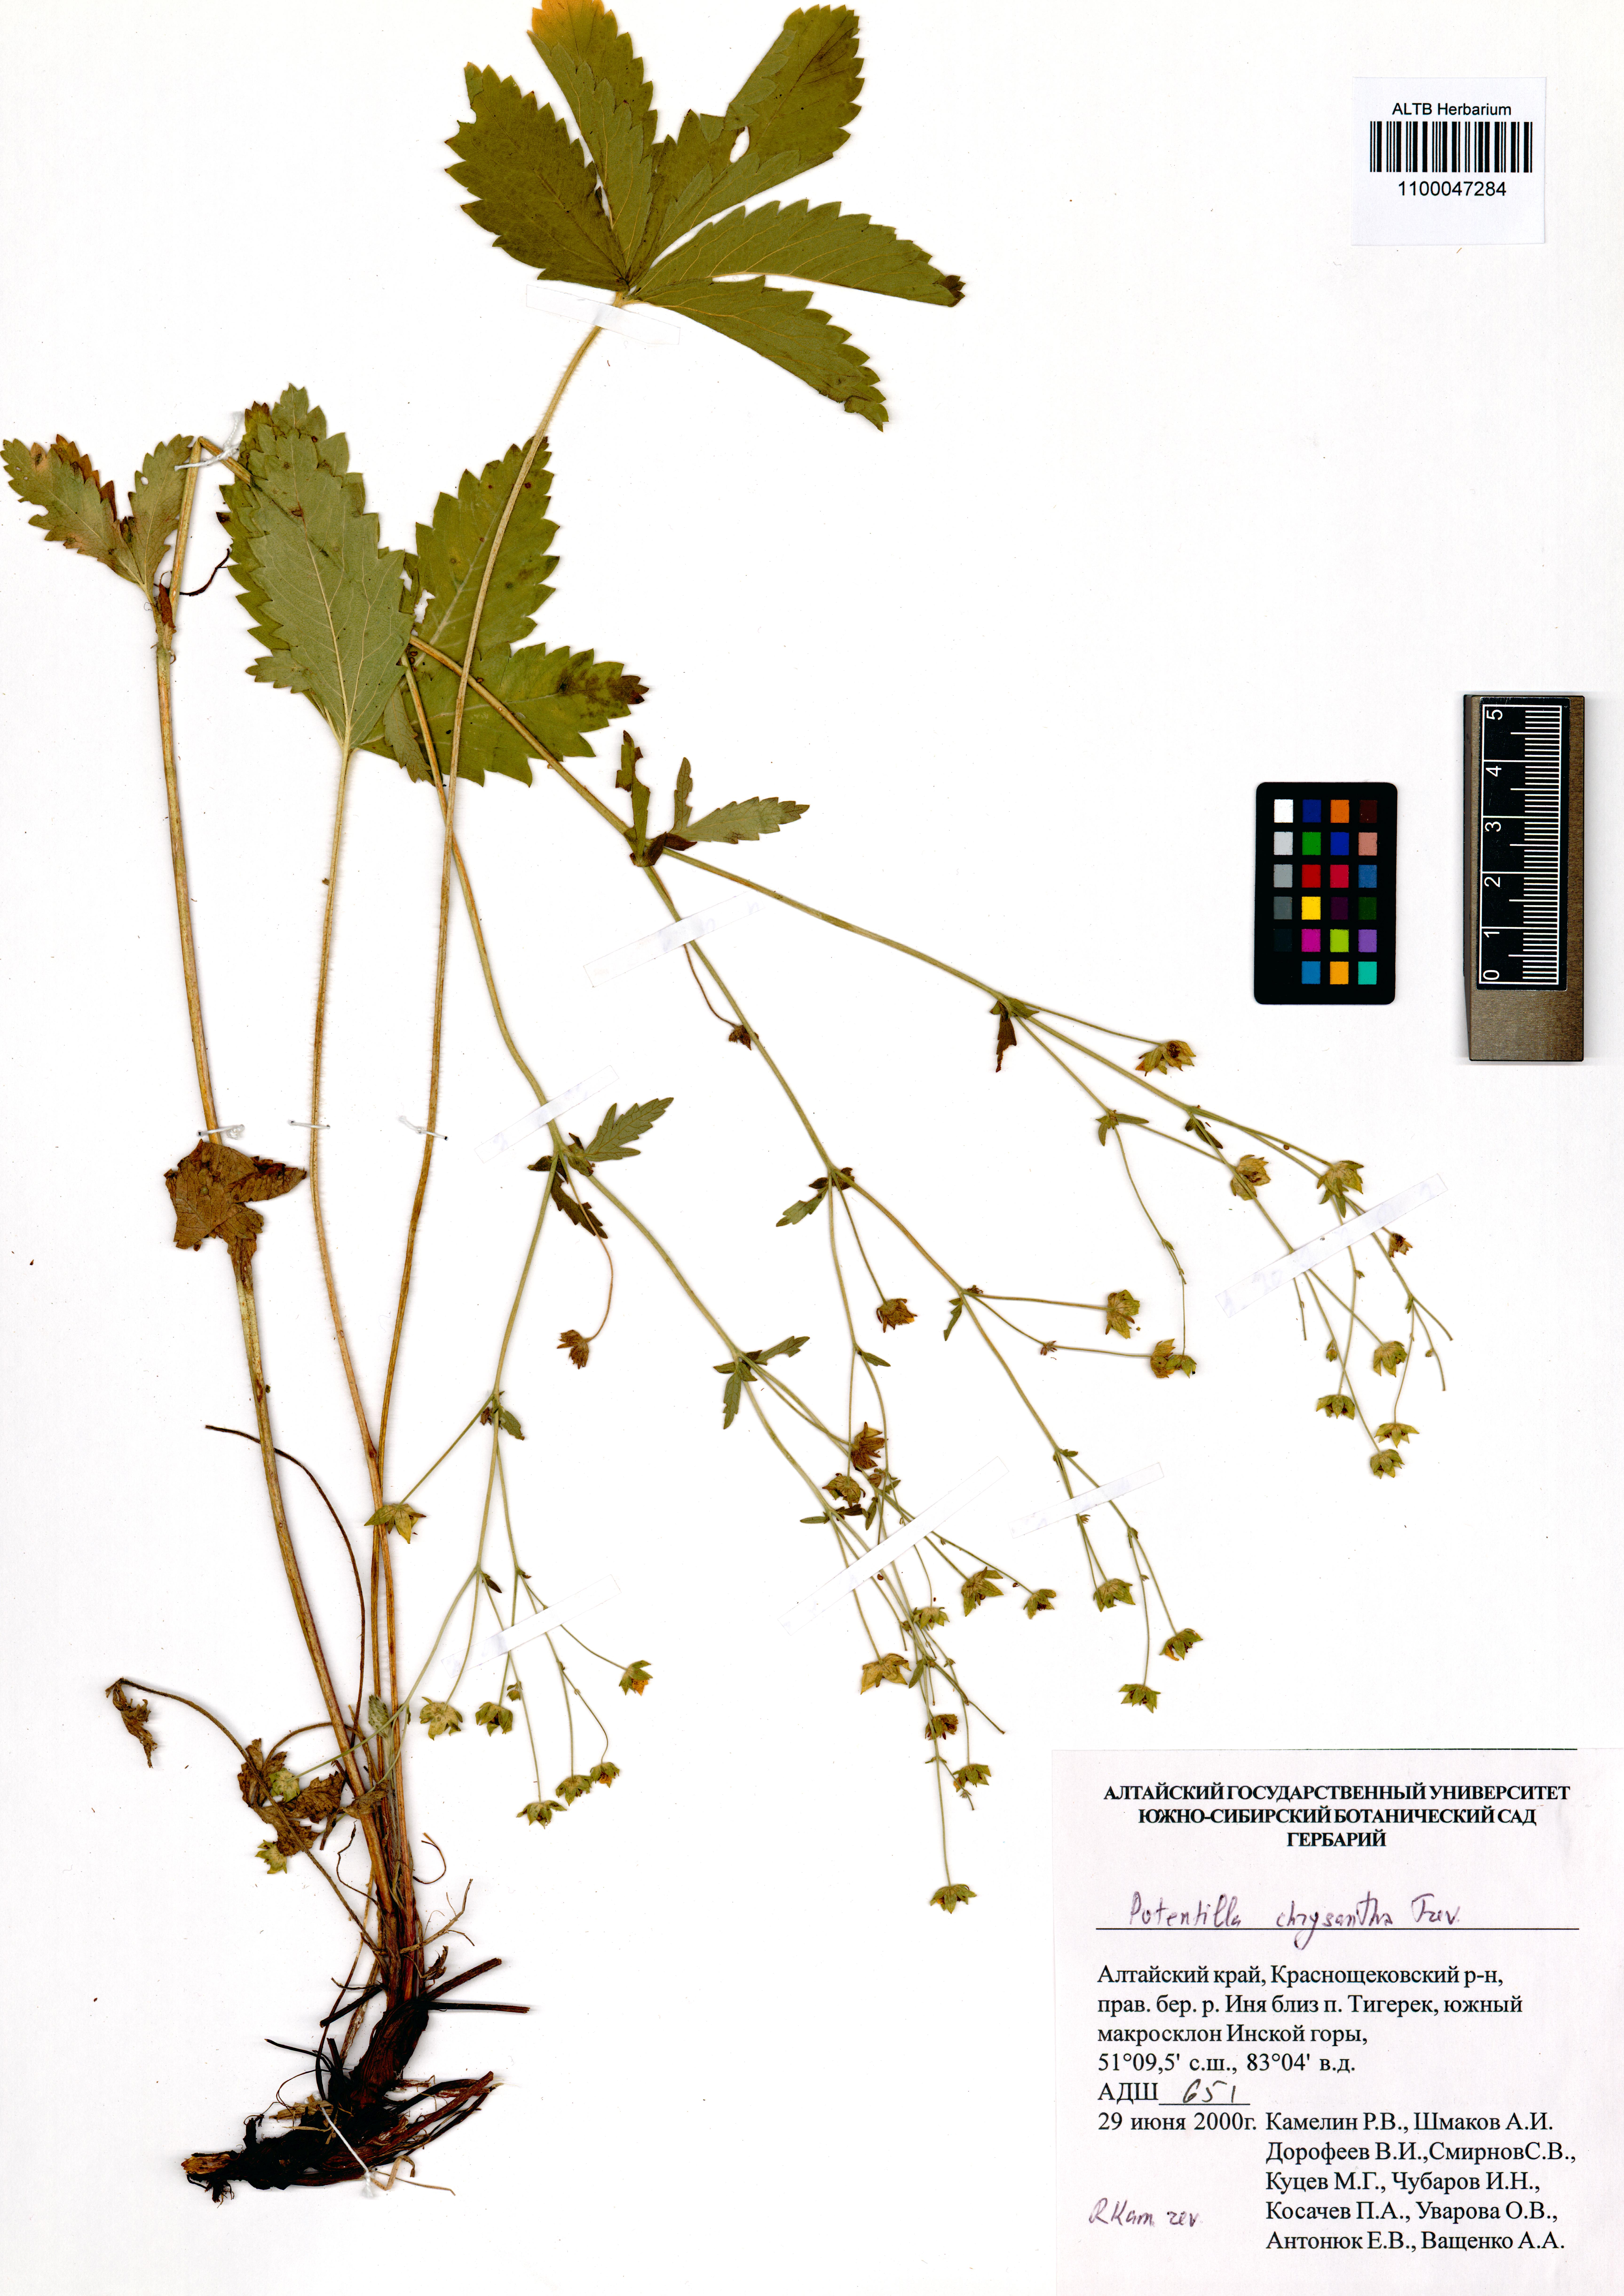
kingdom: Plantae
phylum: Tracheophyta
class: Magnoliopsida
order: Rosales
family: Rosaceae
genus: Potentilla
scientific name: Potentilla chrysantha
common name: Thuringian cinquefoil
